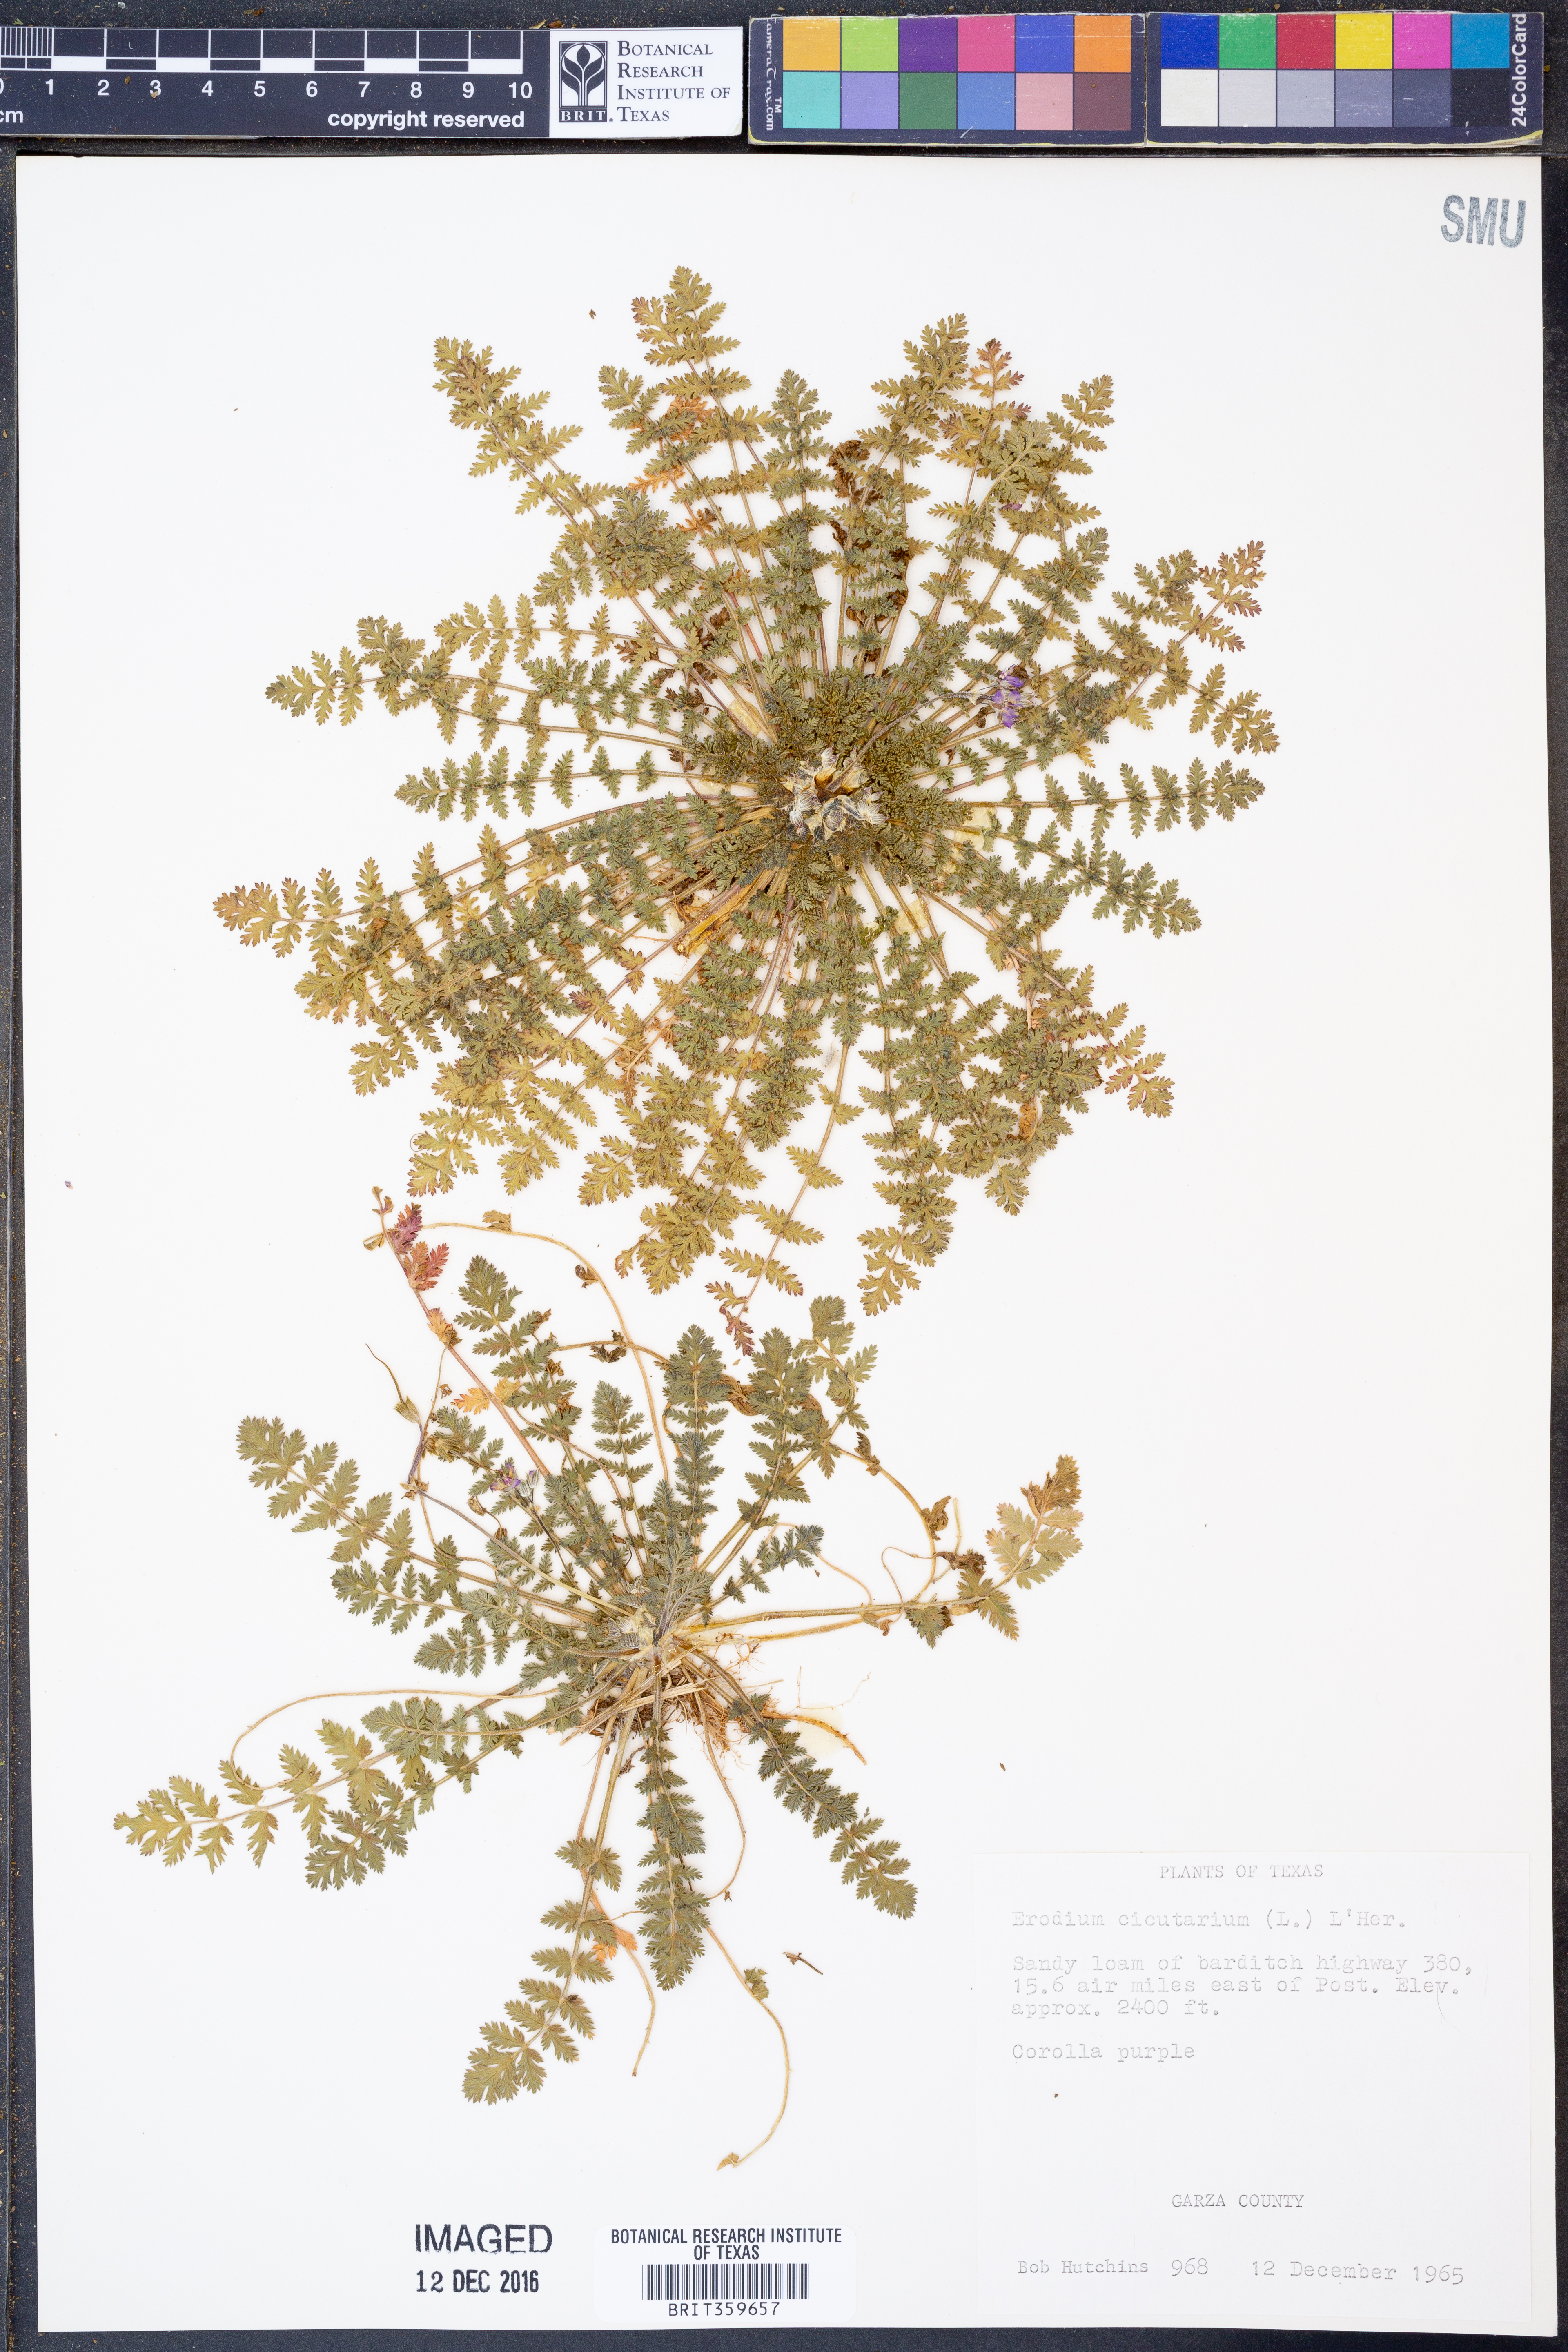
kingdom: Plantae
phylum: Tracheophyta
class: Magnoliopsida
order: Geraniales
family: Geraniaceae
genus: Erodium
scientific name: Erodium cicutarium
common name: Common stork's-bill
